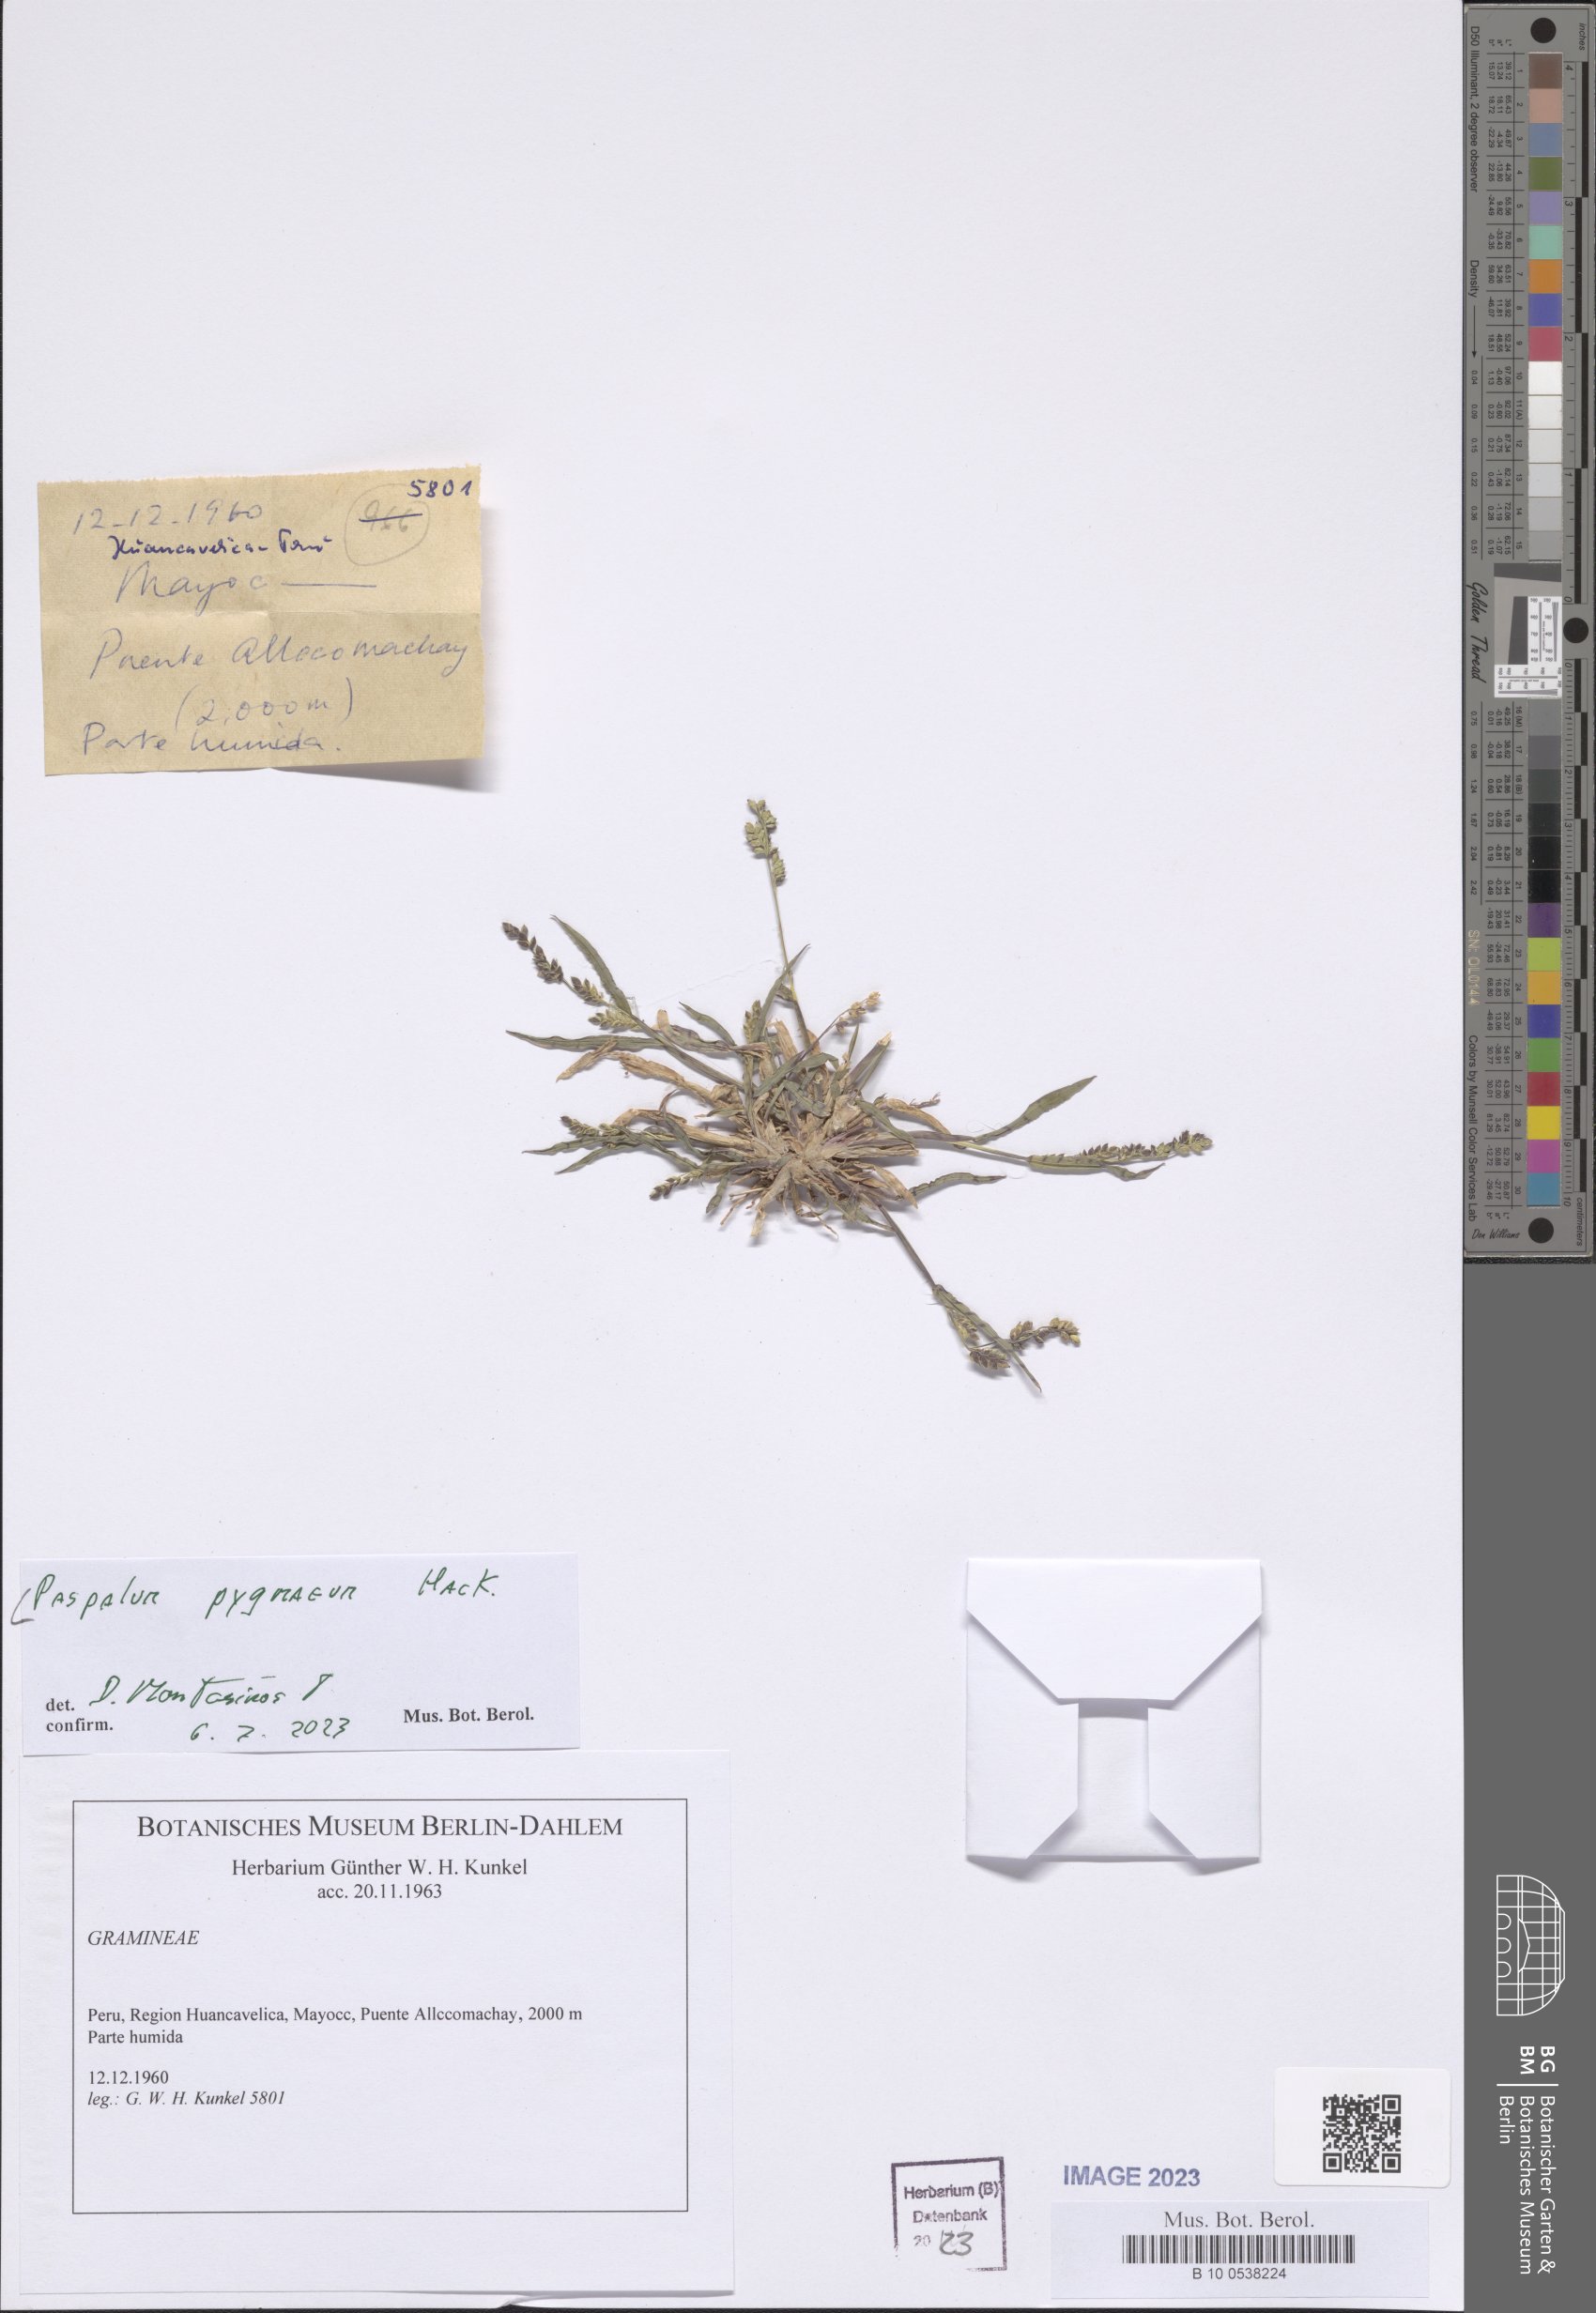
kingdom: Plantae
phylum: Tracheophyta
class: Liliopsida
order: Poales
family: Poaceae
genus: Paspalum
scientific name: Paspalum pygmaeum
